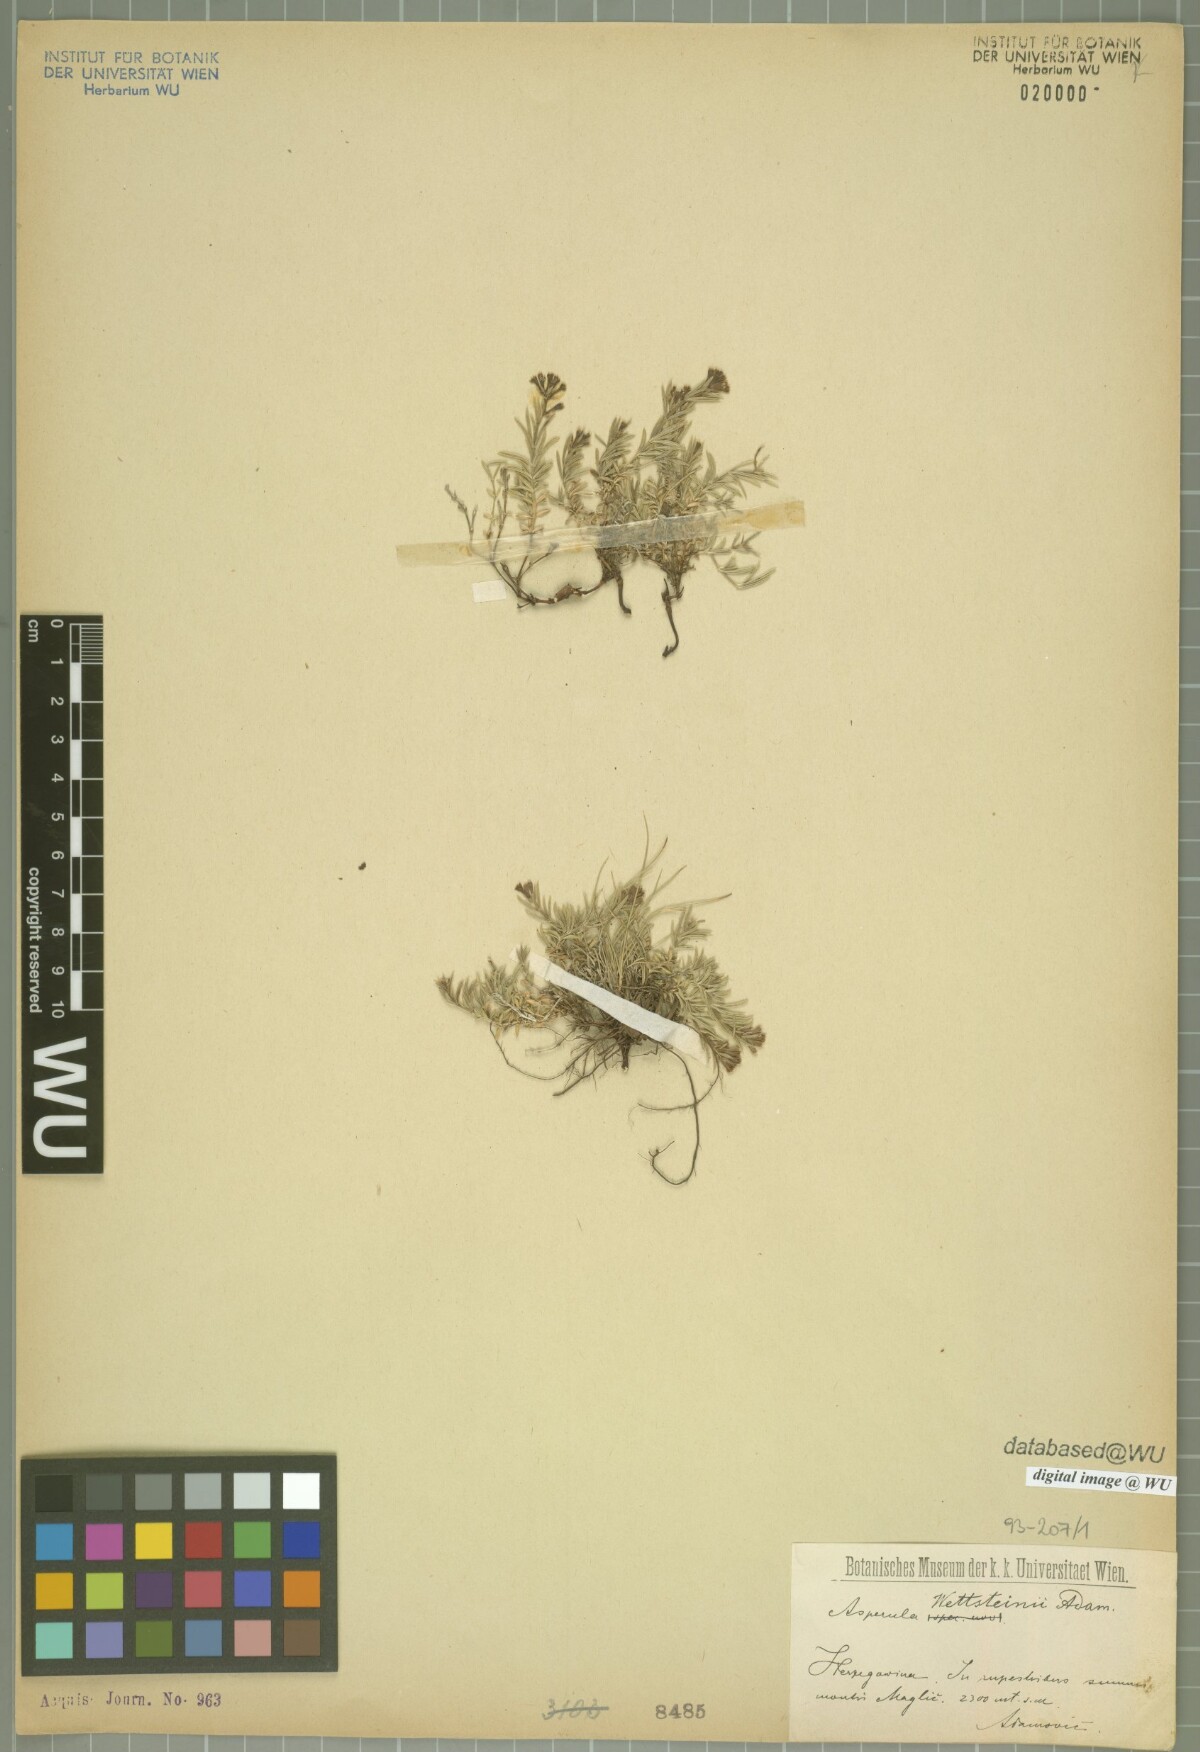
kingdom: Plantae
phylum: Tracheophyta
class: Magnoliopsida
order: Gentianales
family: Rubiaceae
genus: Cynanchica
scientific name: Cynanchica wettsteinii
